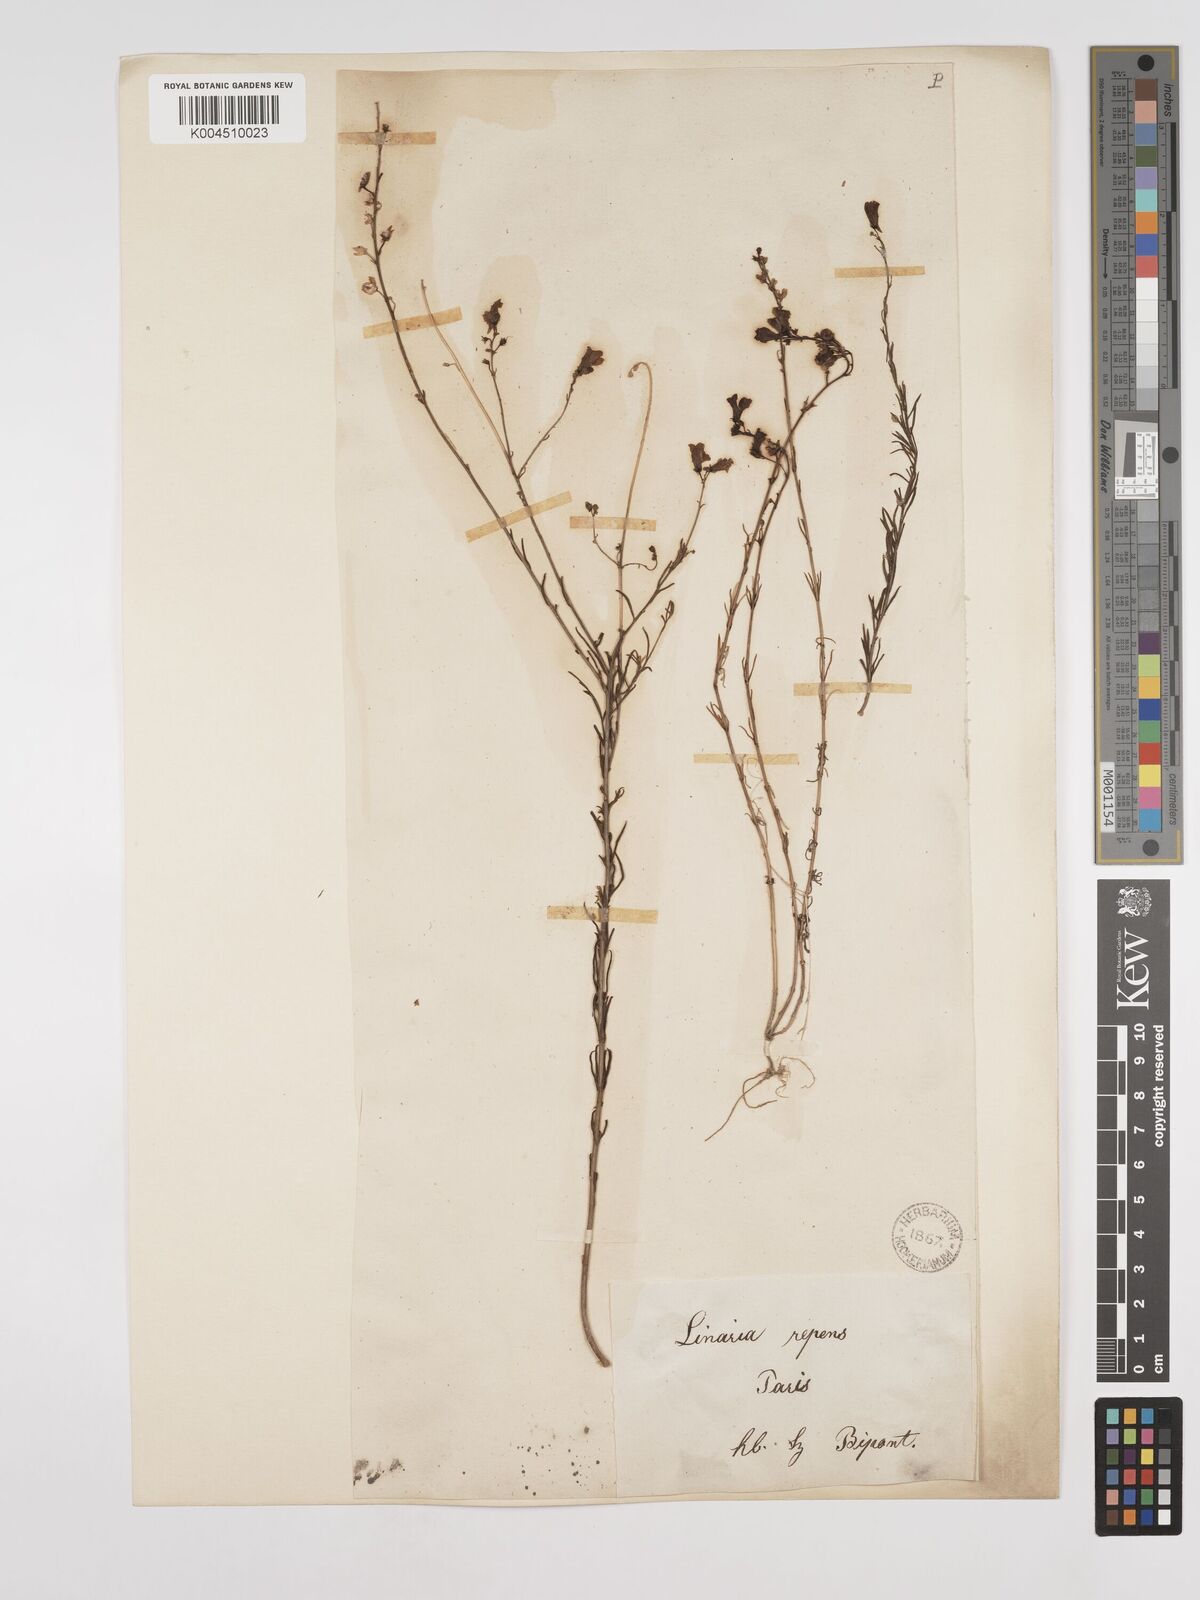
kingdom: Plantae
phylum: Tracheophyta
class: Magnoliopsida
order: Lamiales
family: Plantaginaceae
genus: Linaria
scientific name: Linaria repens
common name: Pale toadflax
